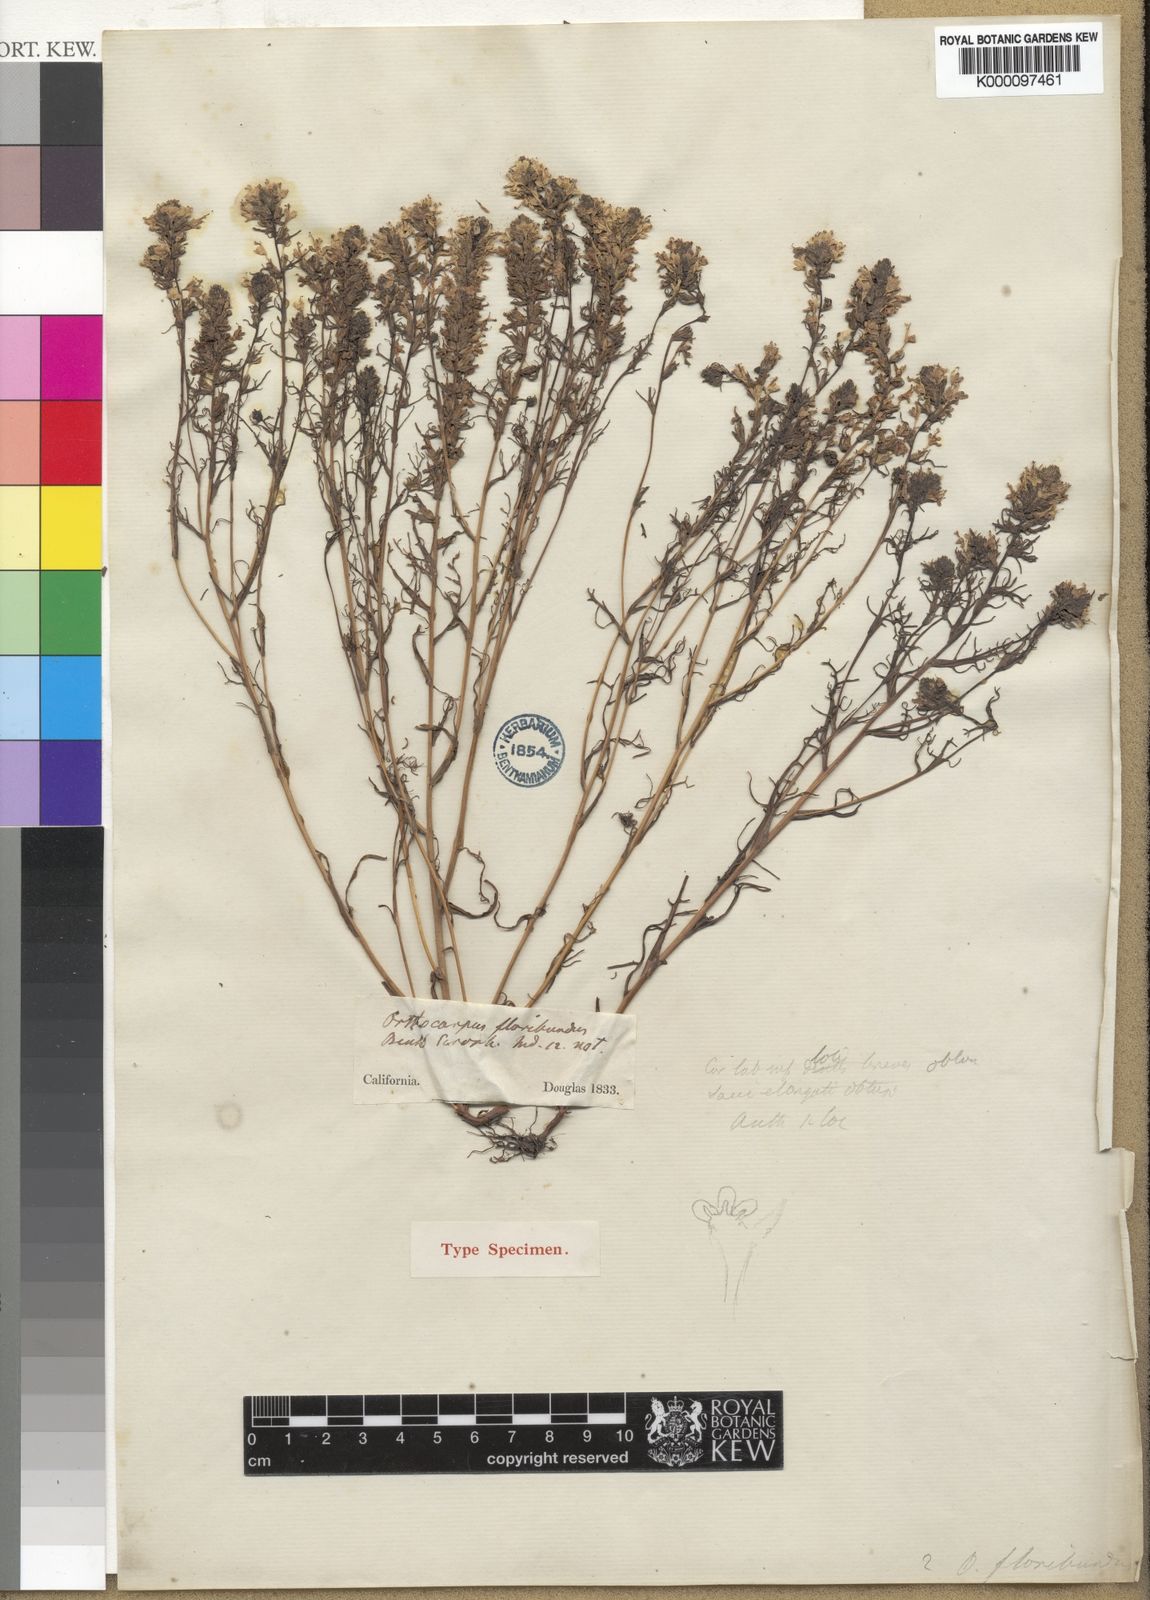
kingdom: Plantae
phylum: Tracheophyta
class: Magnoliopsida
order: Lamiales
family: Orobanchaceae
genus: Triphysaria
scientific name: Triphysaria floribunda
